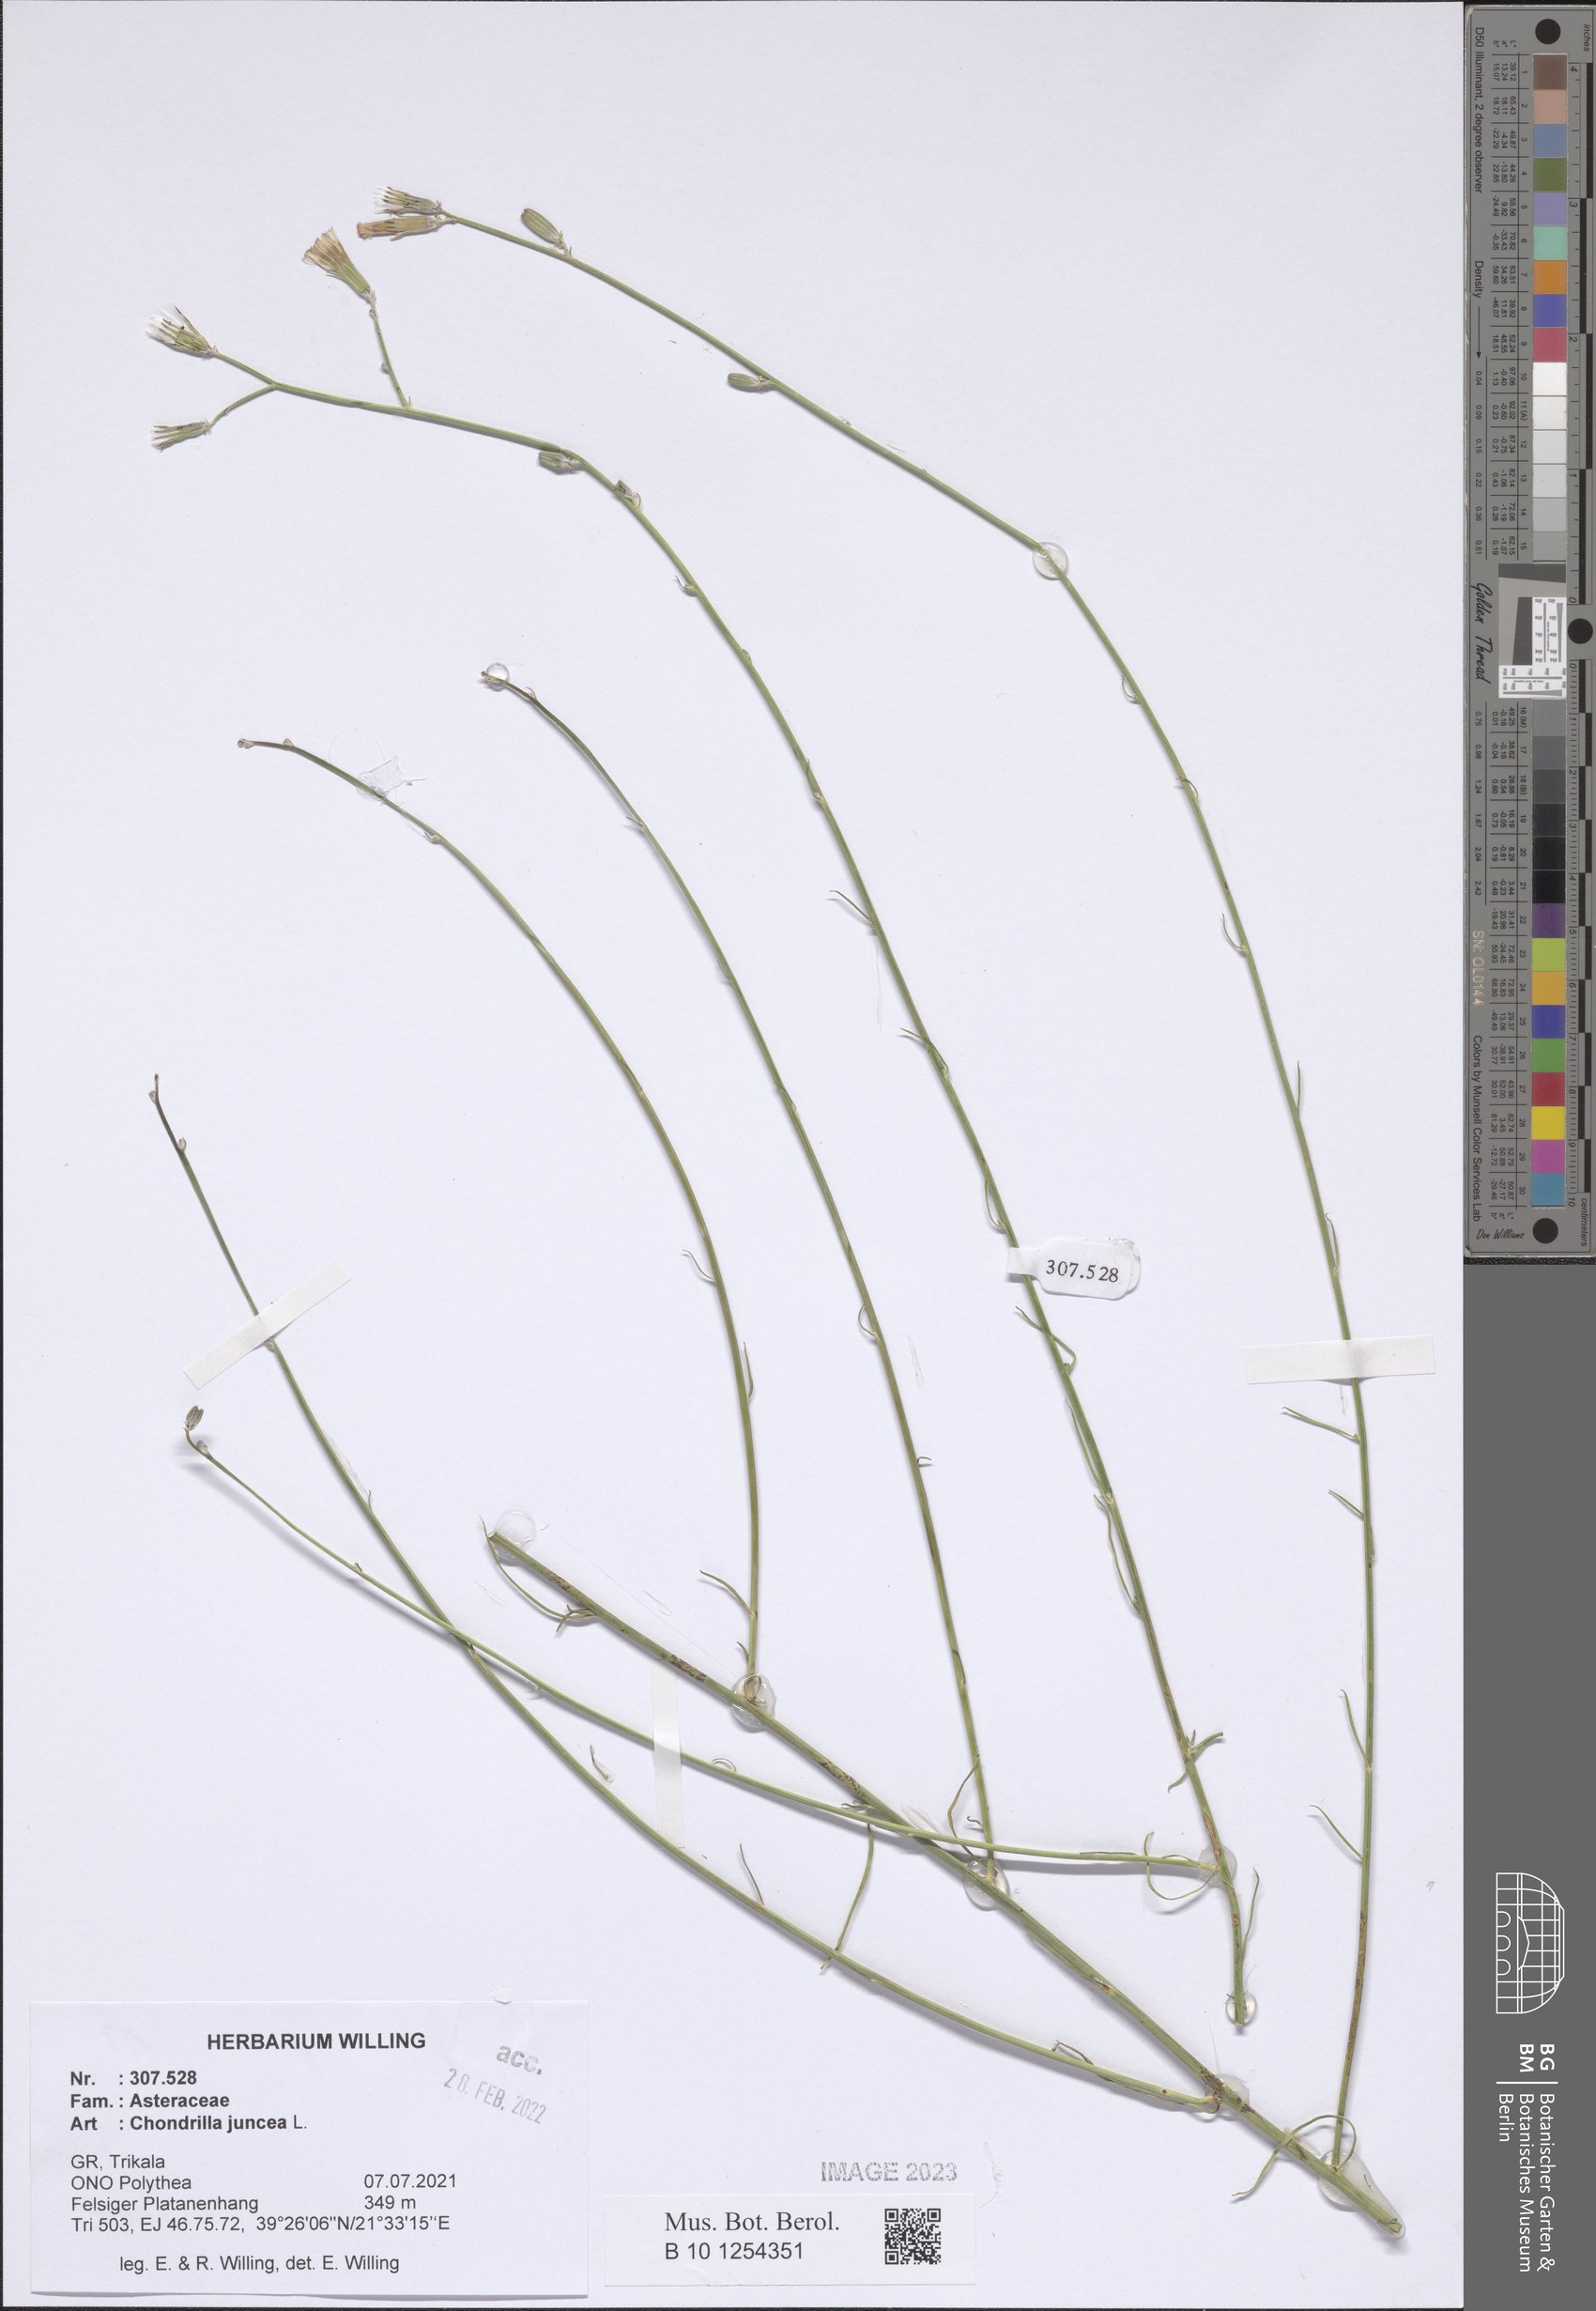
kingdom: Plantae
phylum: Tracheophyta
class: Magnoliopsida
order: Asterales
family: Asteraceae
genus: Chondrilla
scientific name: Chondrilla juncea
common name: Skeleton weed
